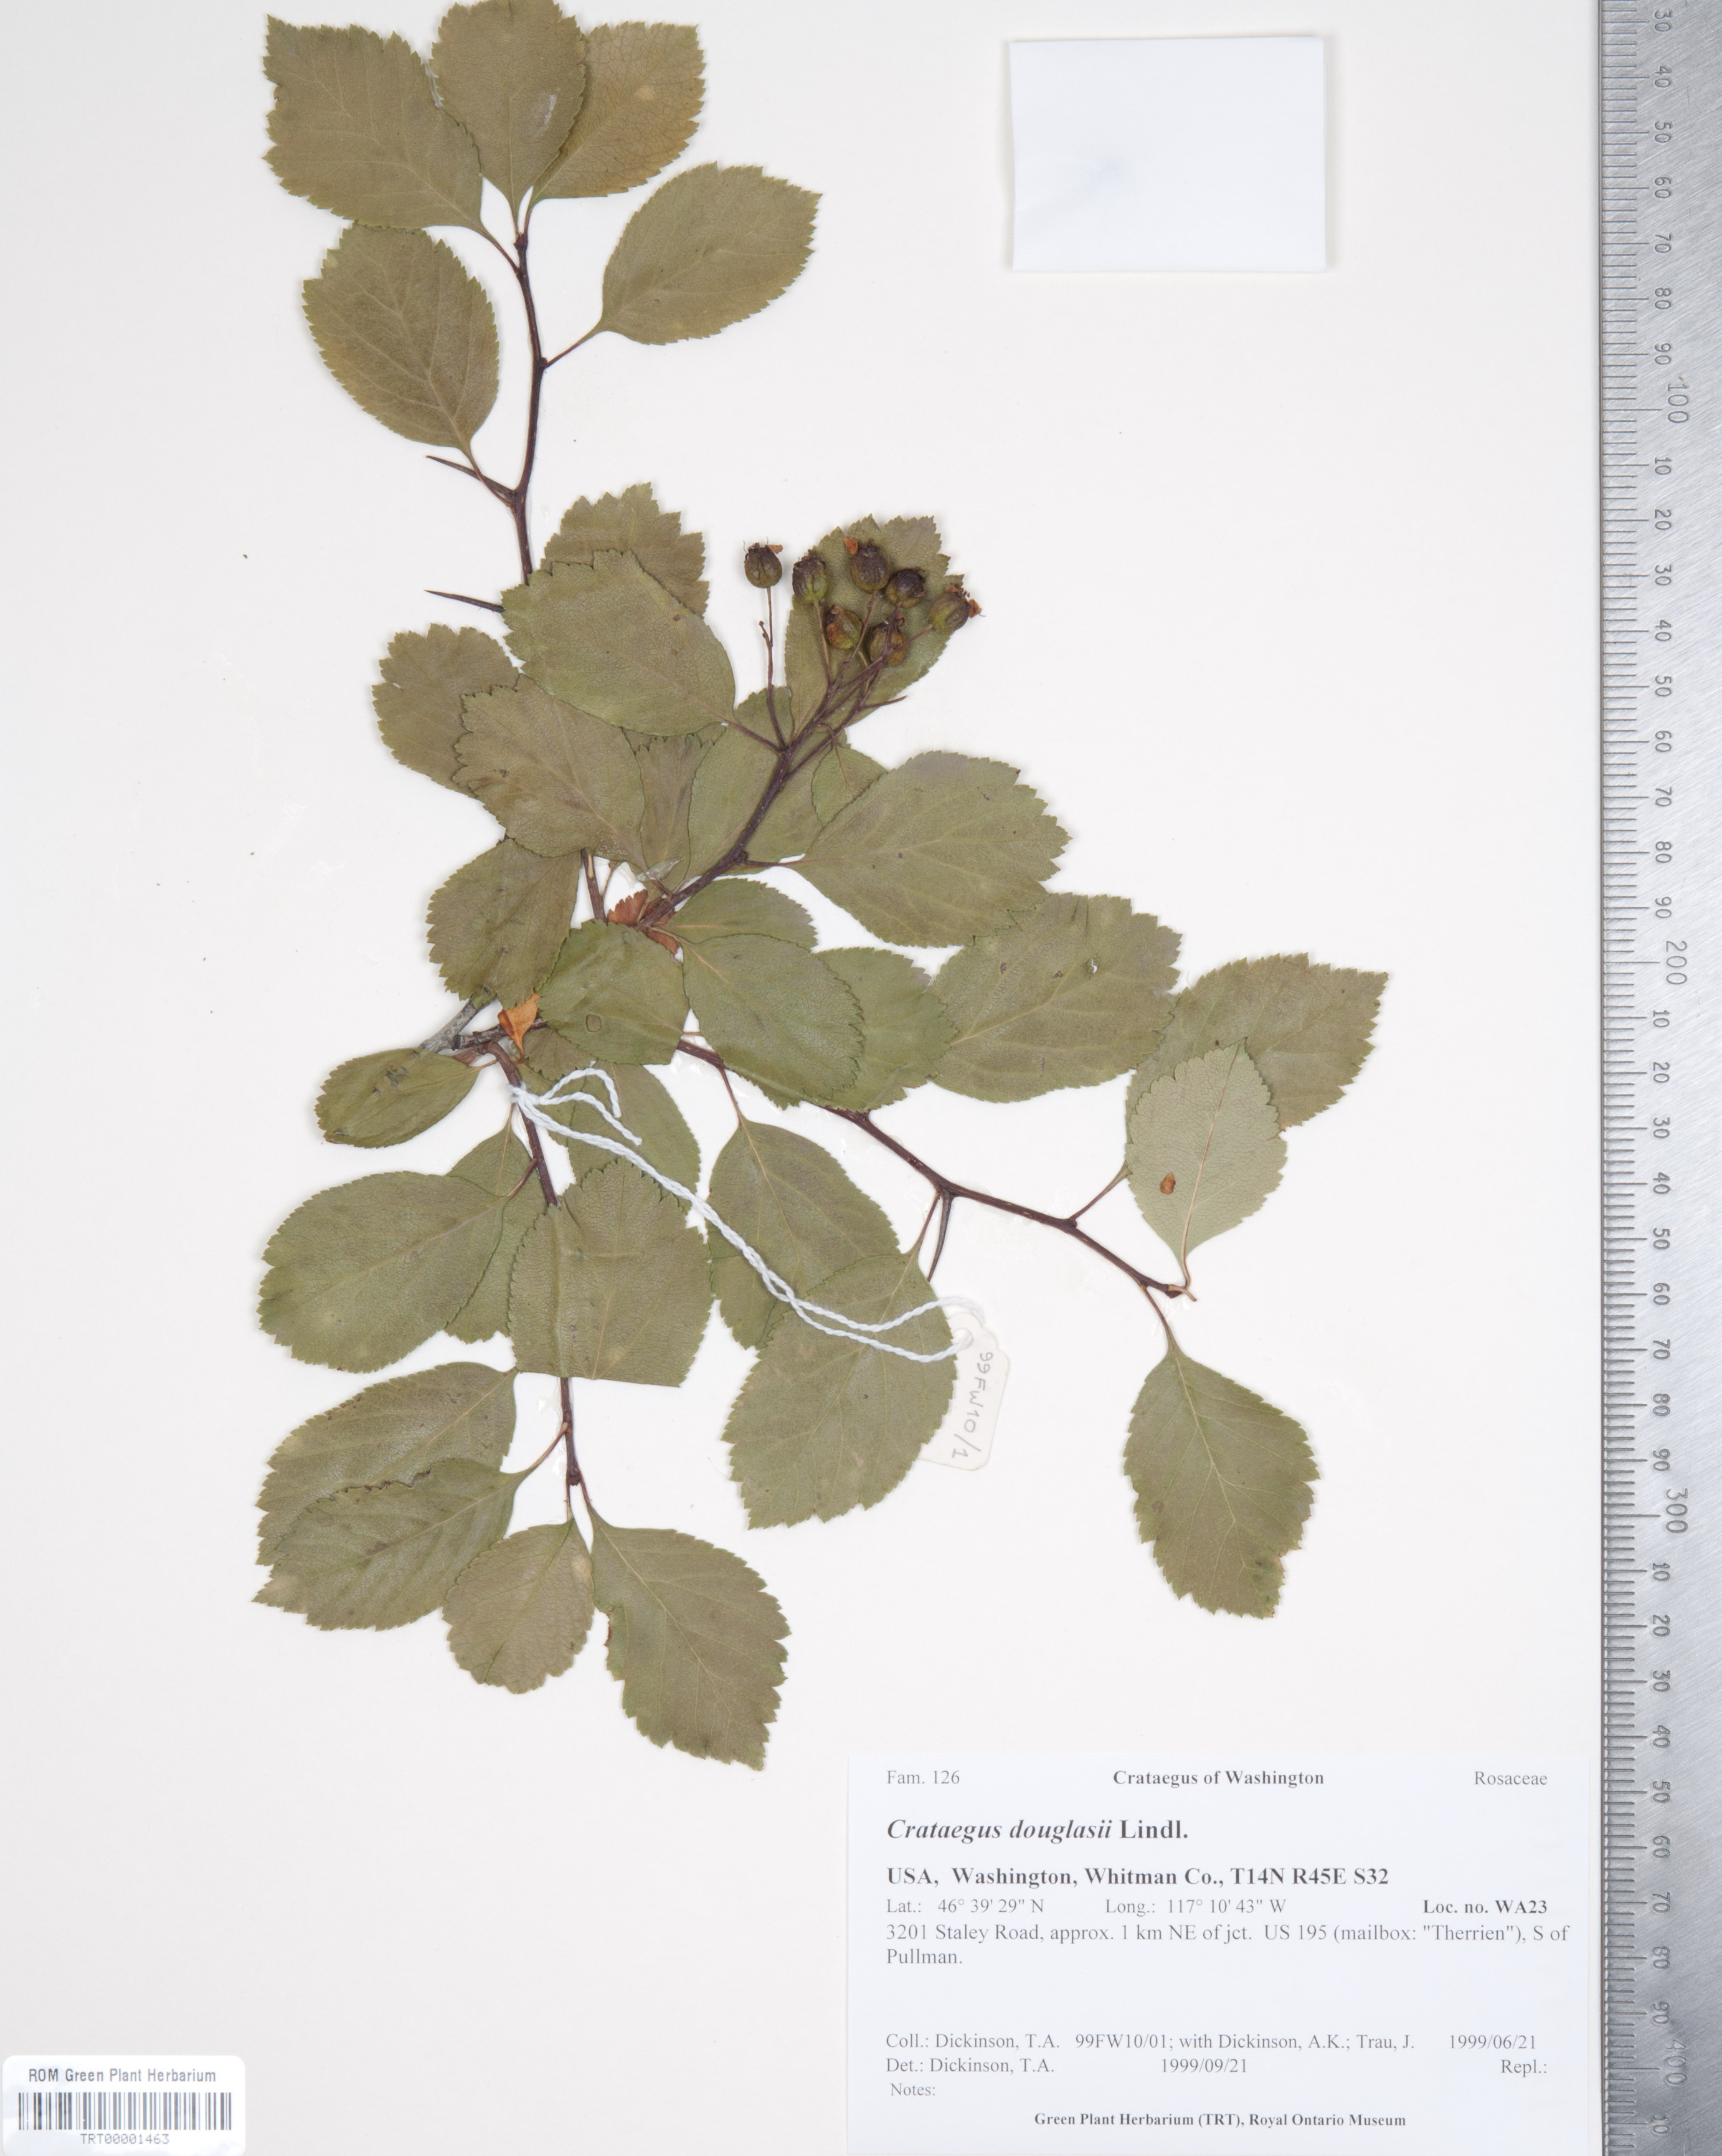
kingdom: Plantae
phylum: Tracheophyta
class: Magnoliopsida
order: Rosales
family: Rosaceae
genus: Crataegus
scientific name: Crataegus douglasii
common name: Black hawthorn
